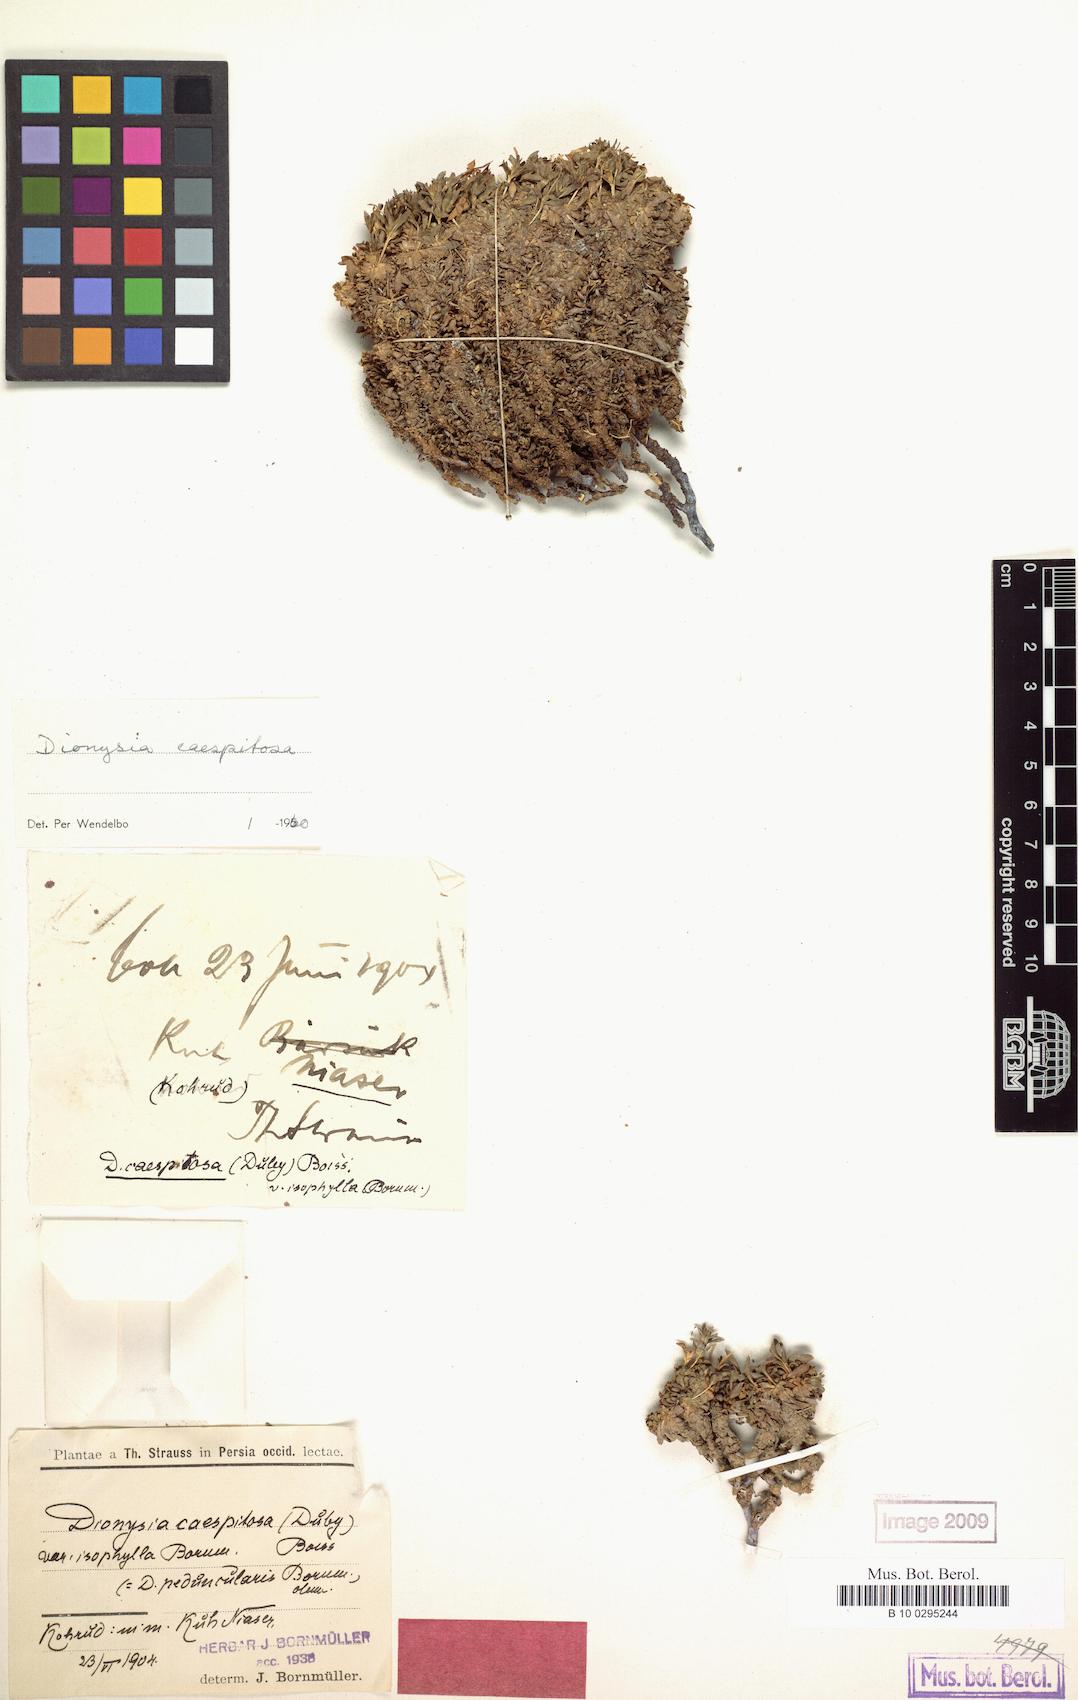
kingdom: Plantae
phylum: Tracheophyta
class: Magnoliopsida
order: Ericales
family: Primulaceae
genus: Dionysia
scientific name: Dionysia caespitosa
